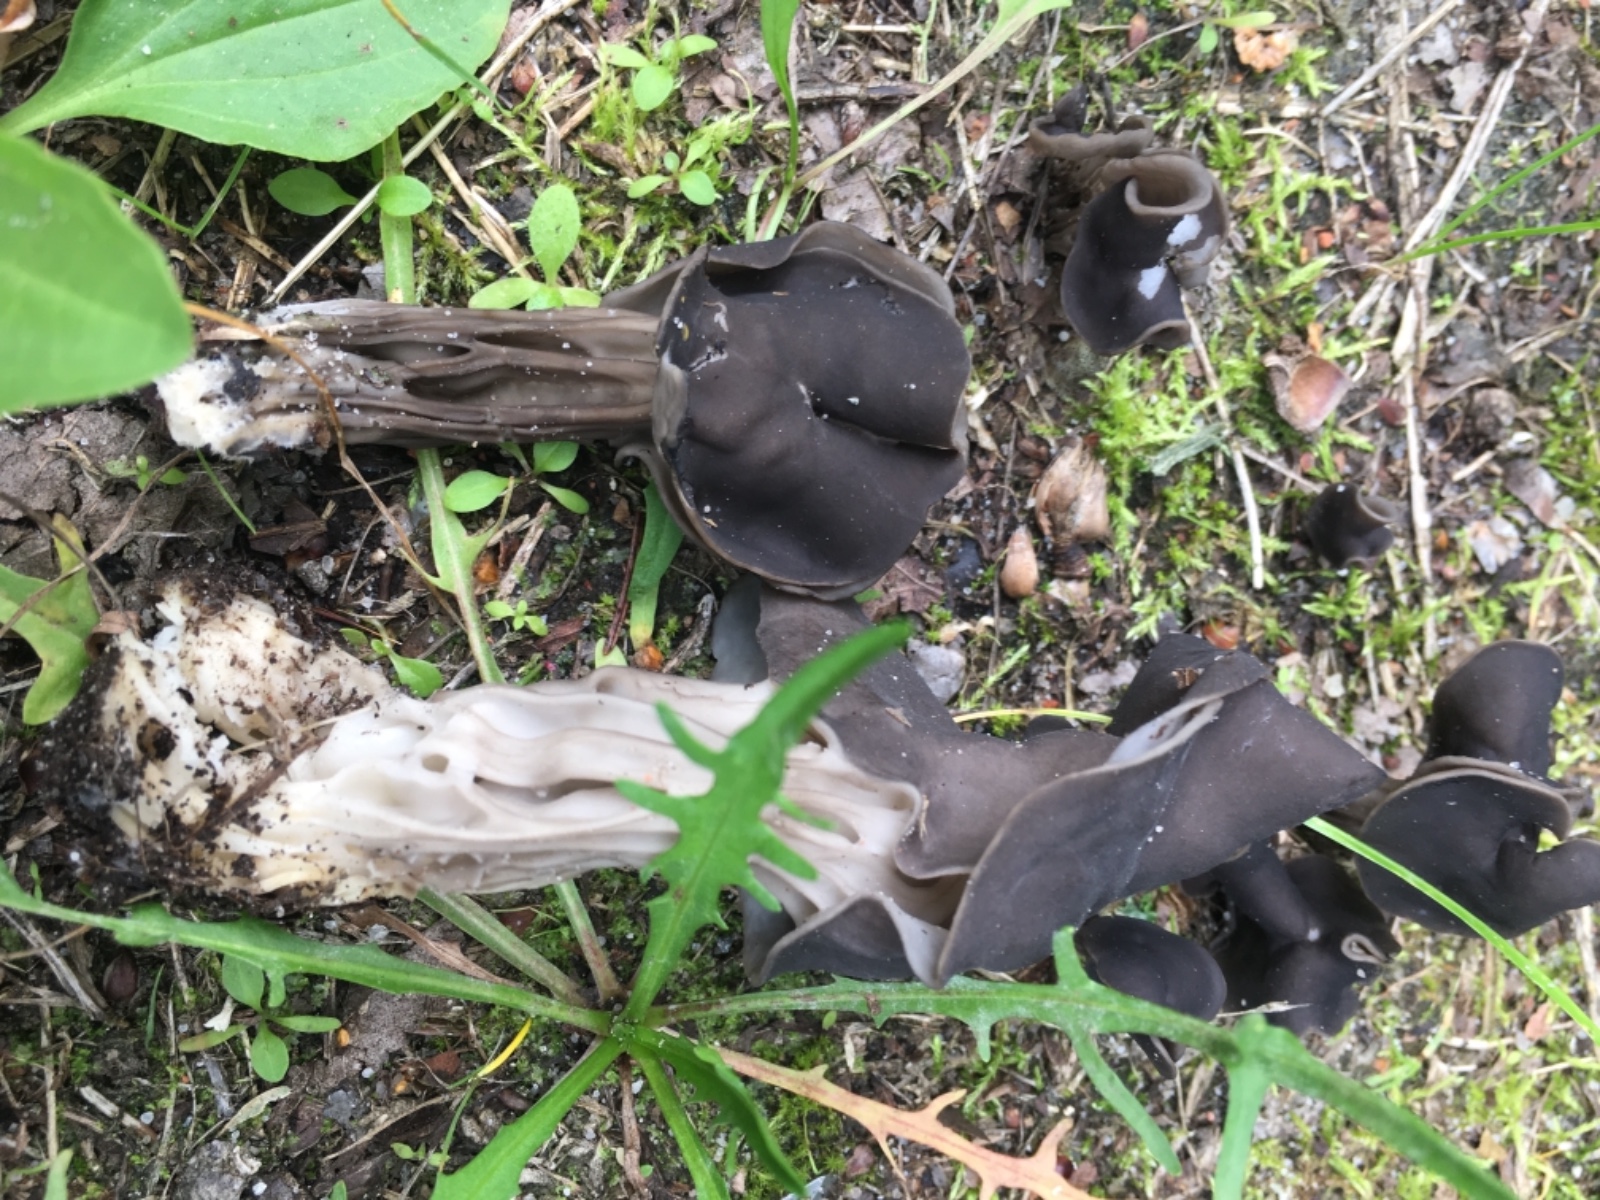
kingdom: Fungi
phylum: Ascomycota
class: Pezizomycetes
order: Pezizales
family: Helvellaceae
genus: Helvella
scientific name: Helvella lacunosa
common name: grubet foldhat
